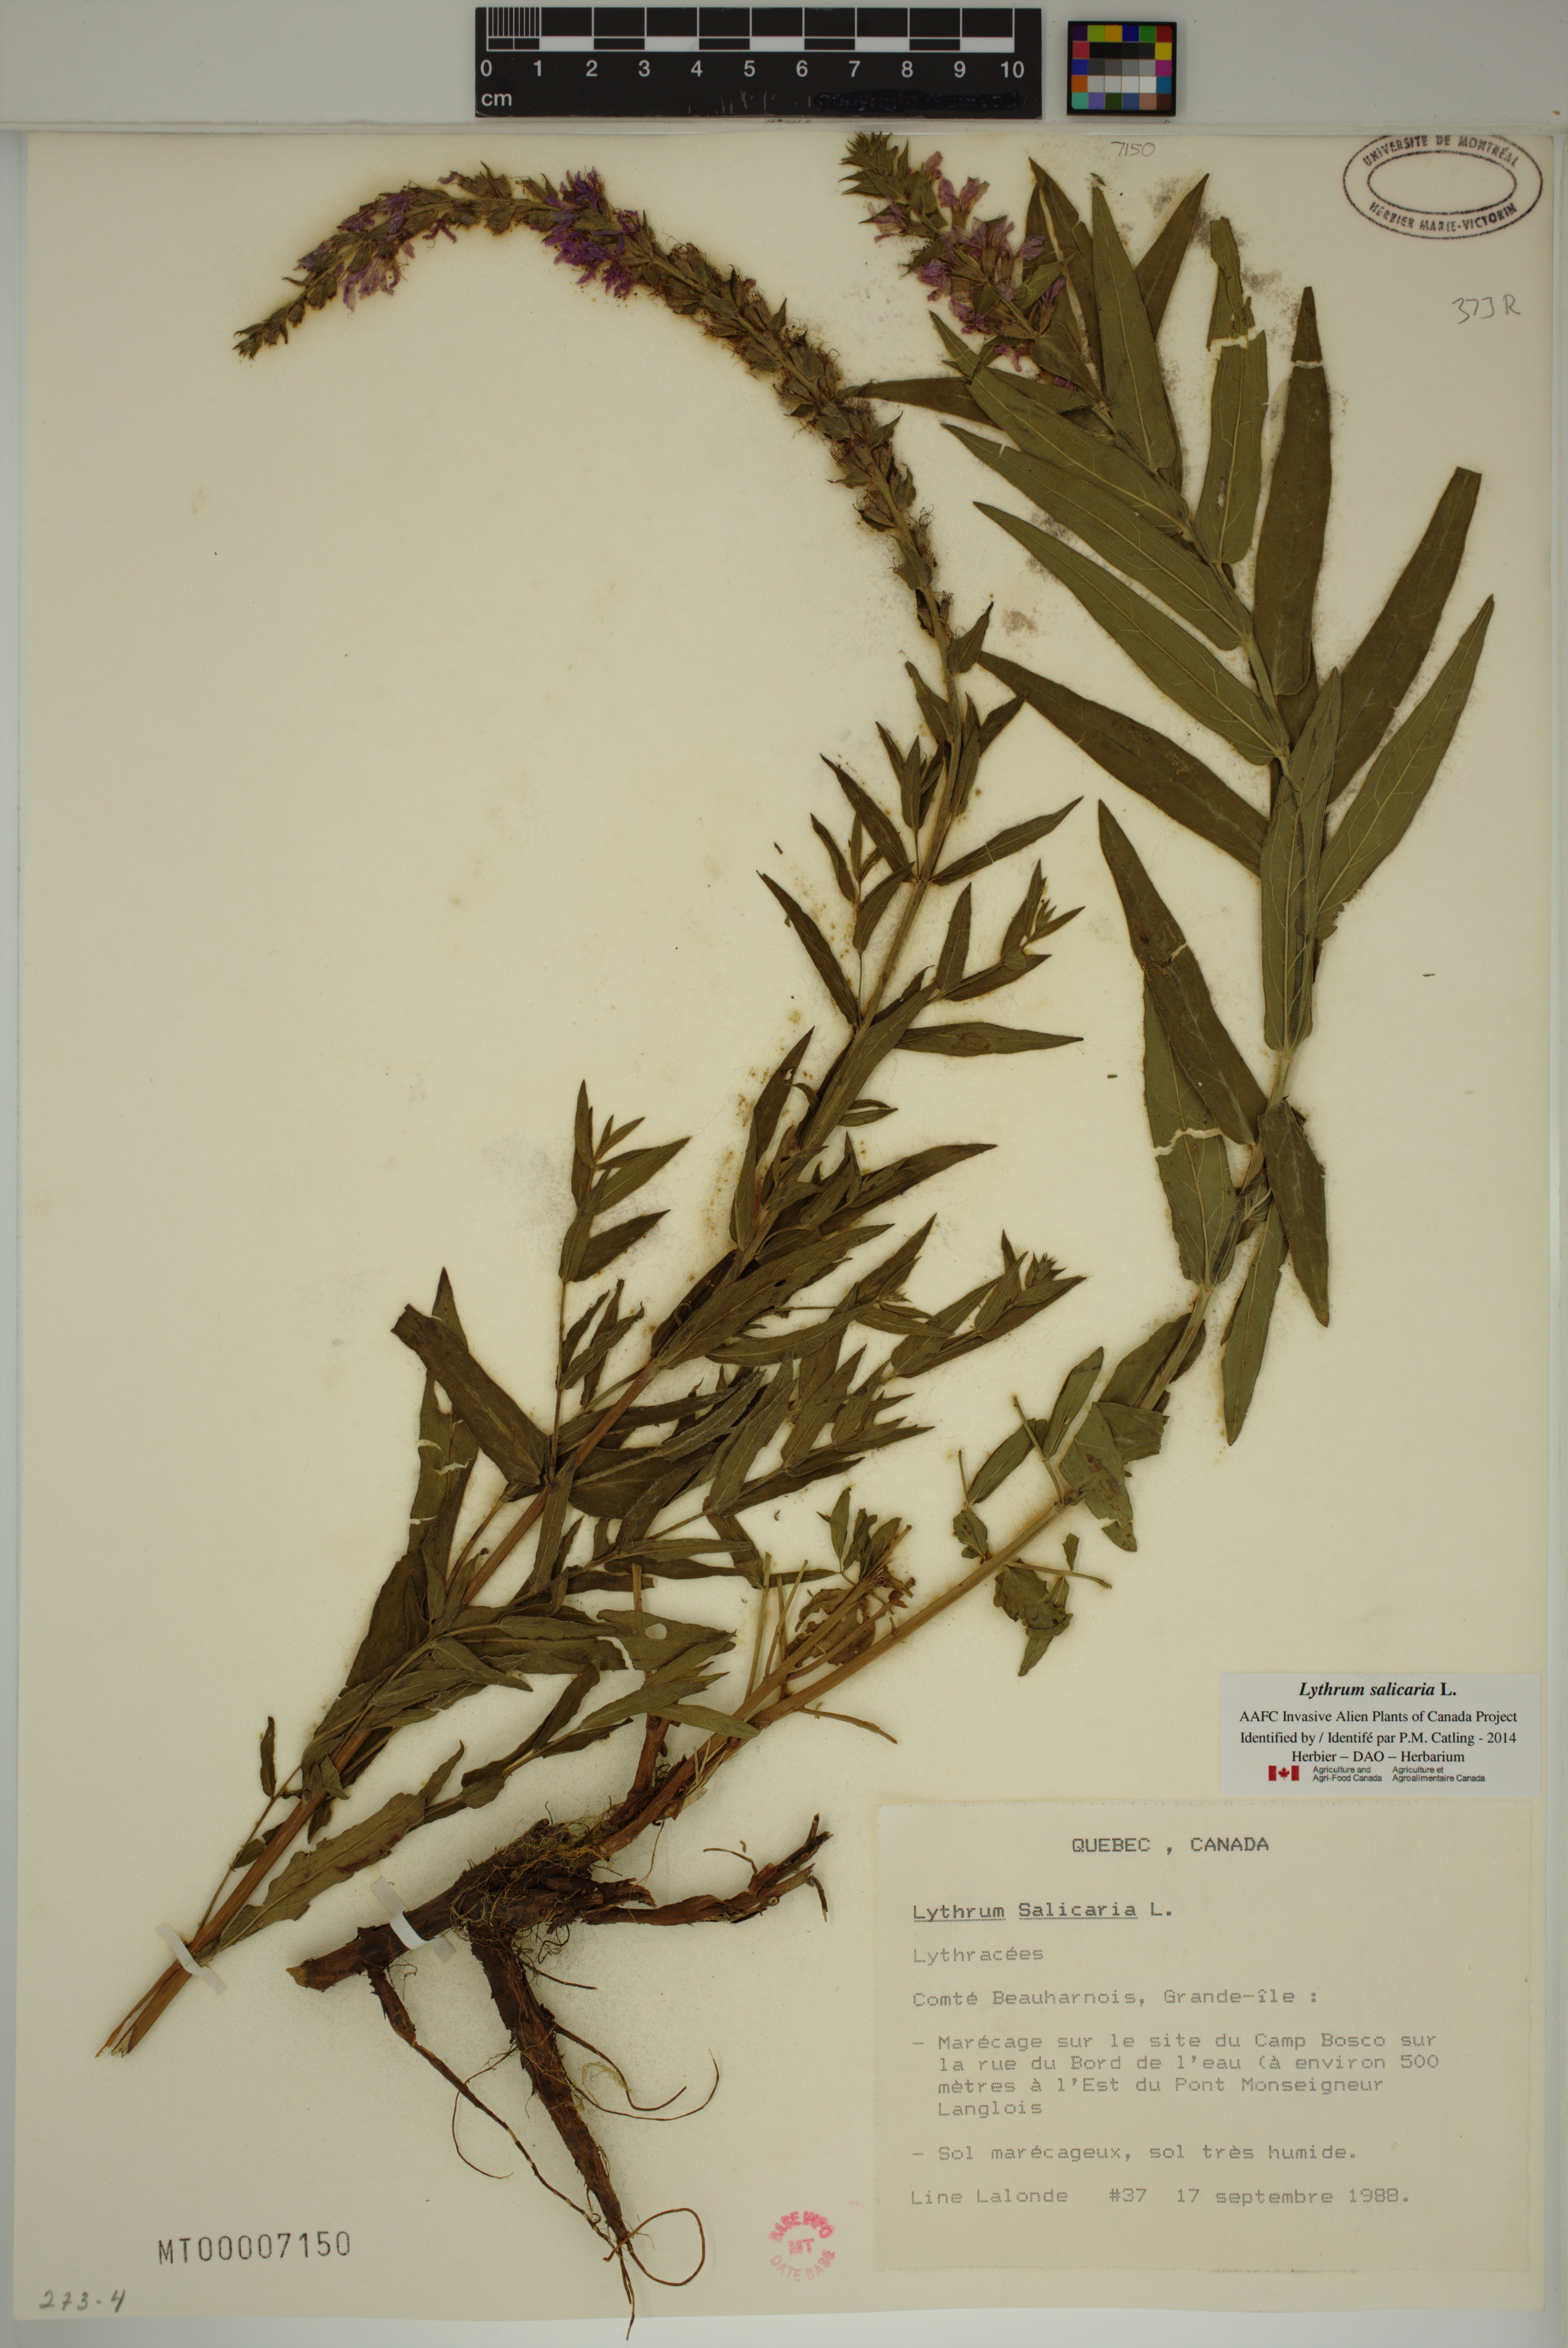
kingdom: Plantae
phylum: Tracheophyta
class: Magnoliopsida
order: Myrtales
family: Lythraceae
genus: Lythrum
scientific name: Lythrum salicaria
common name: Purple loosestrife
